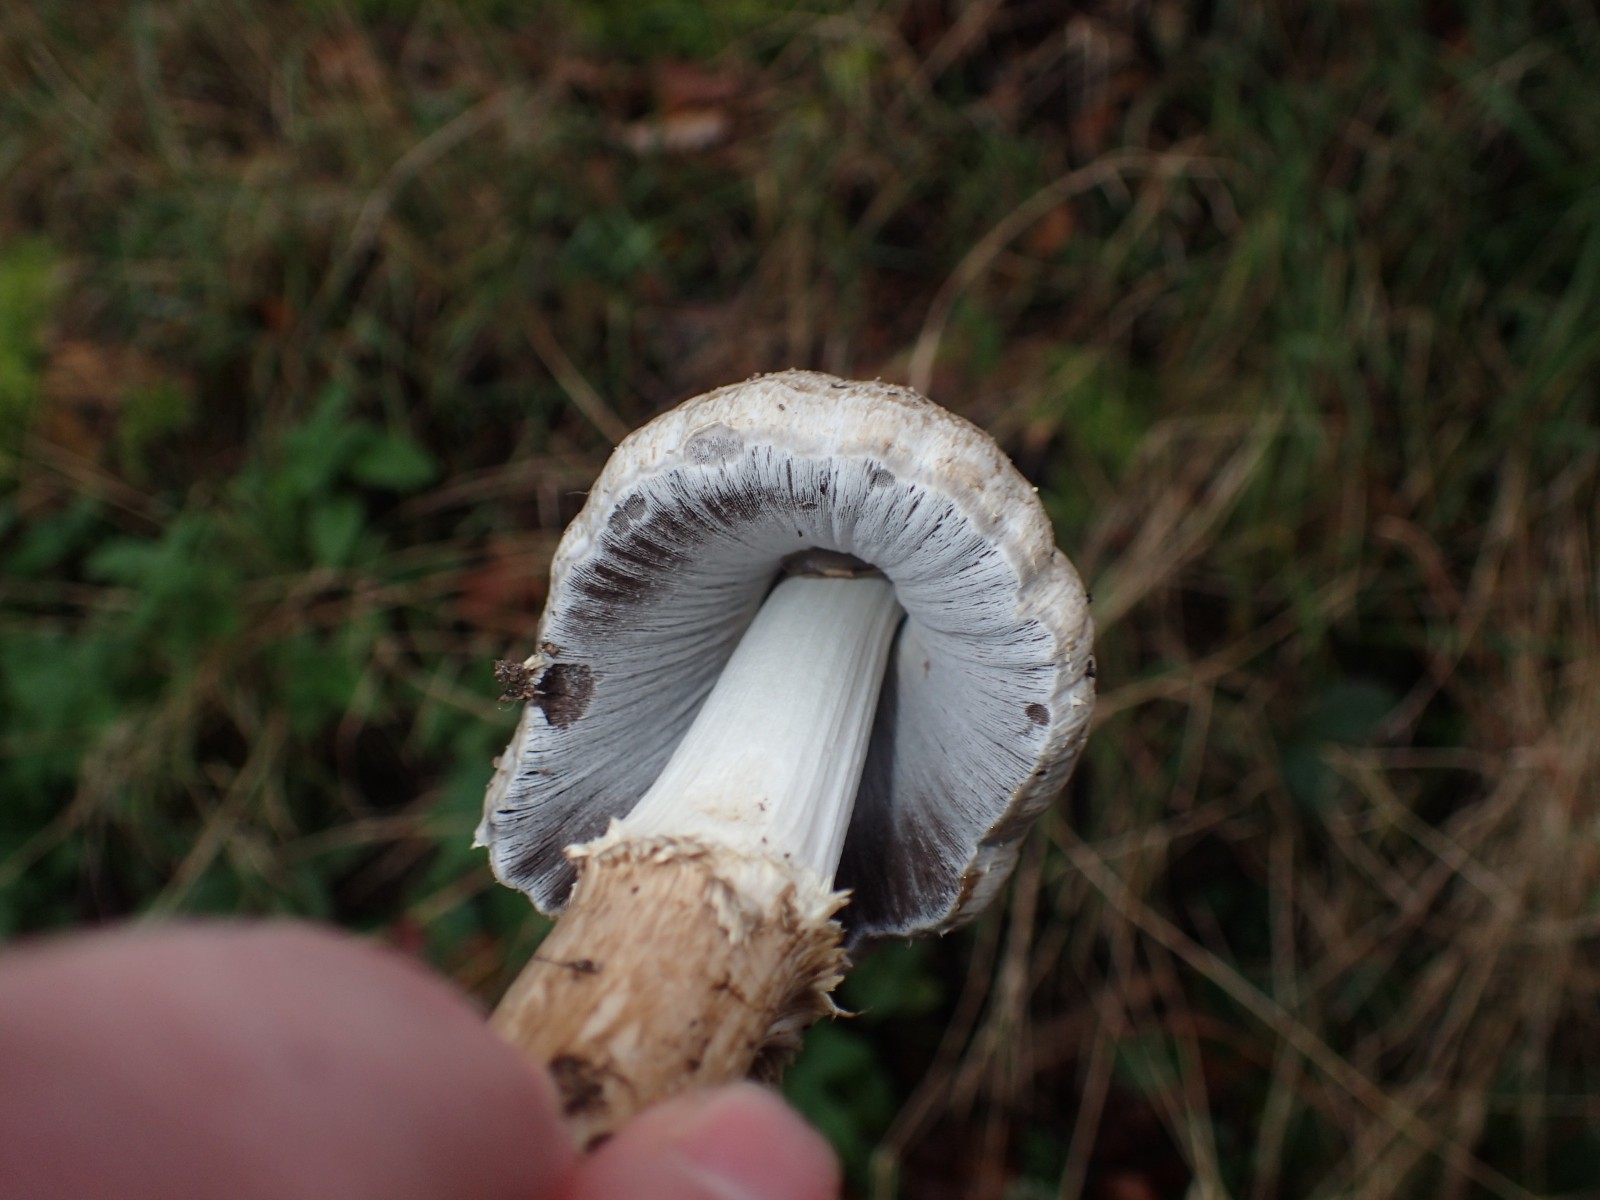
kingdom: Fungi
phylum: Basidiomycota
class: Agaricomycetes
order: Agaricales
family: Psathyrellaceae
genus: Coprinopsis
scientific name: Coprinopsis romagnesiana
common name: brunskællet blækhat
